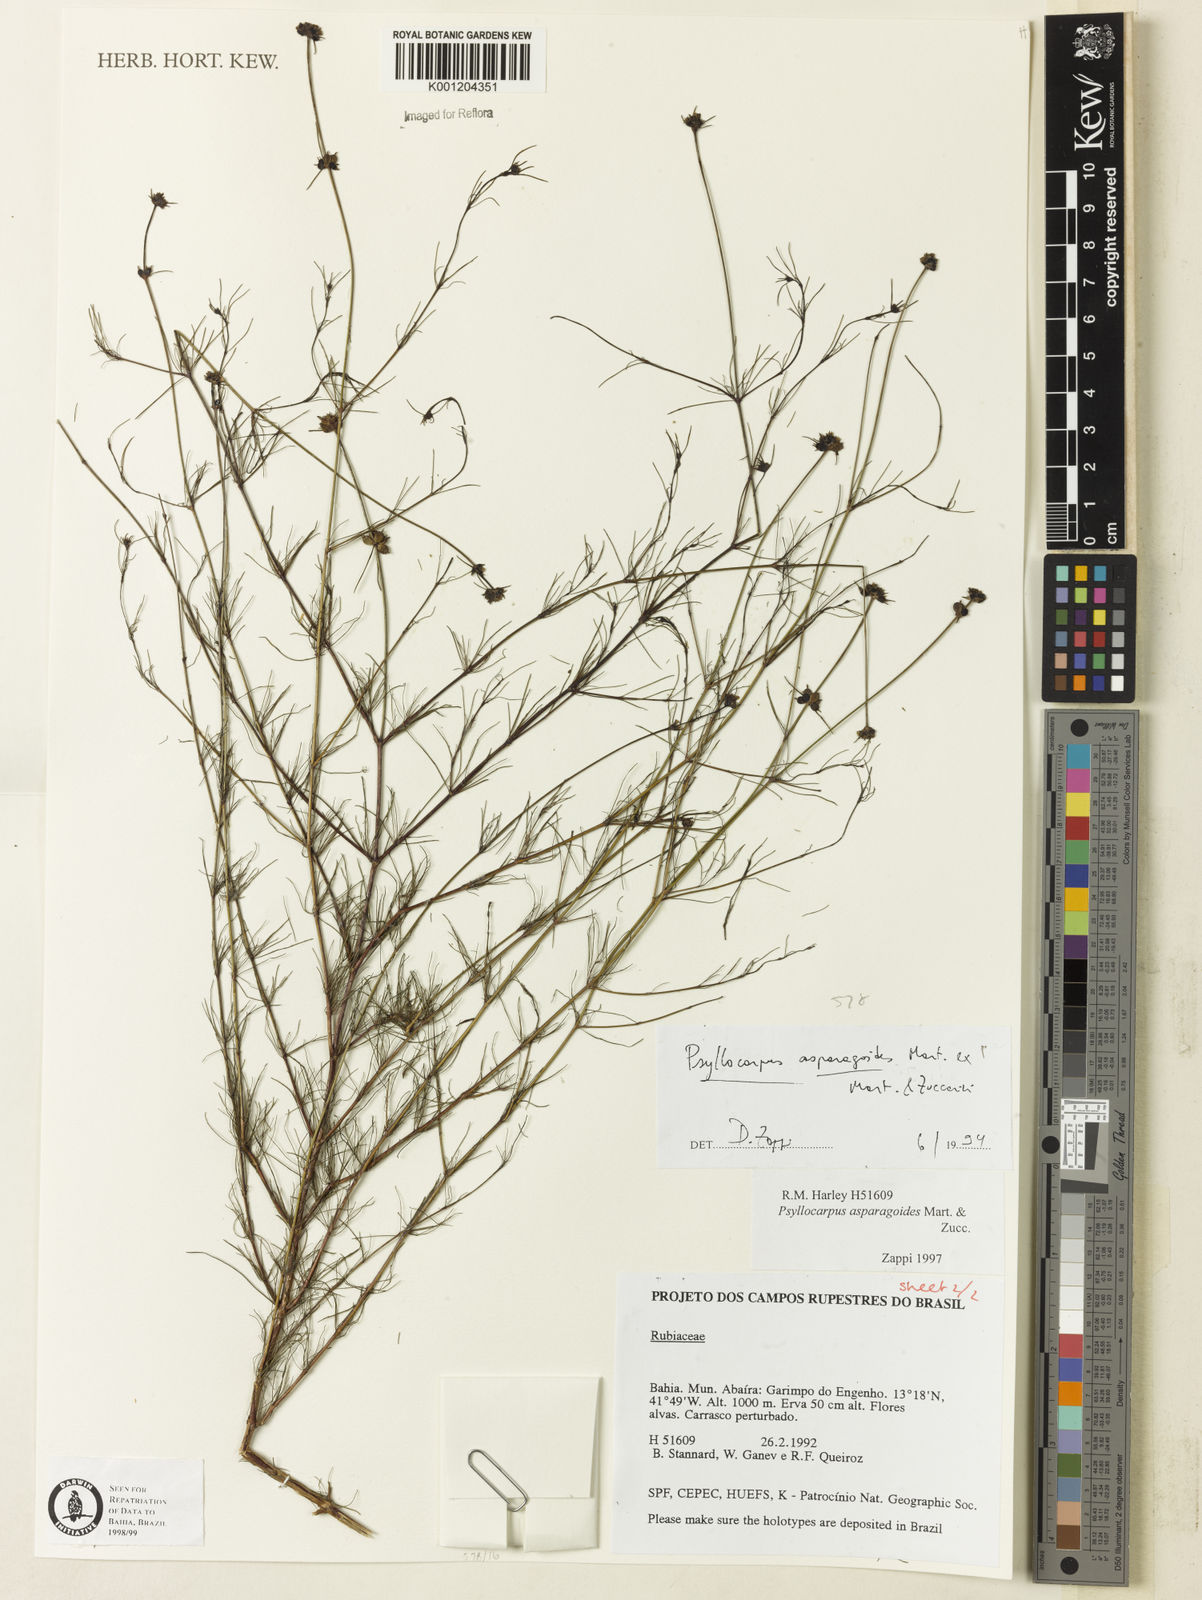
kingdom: Plantae
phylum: Tracheophyta
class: Magnoliopsida
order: Gentianales
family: Rubiaceae
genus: Psyllocarpus
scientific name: Psyllocarpus asparagoides
